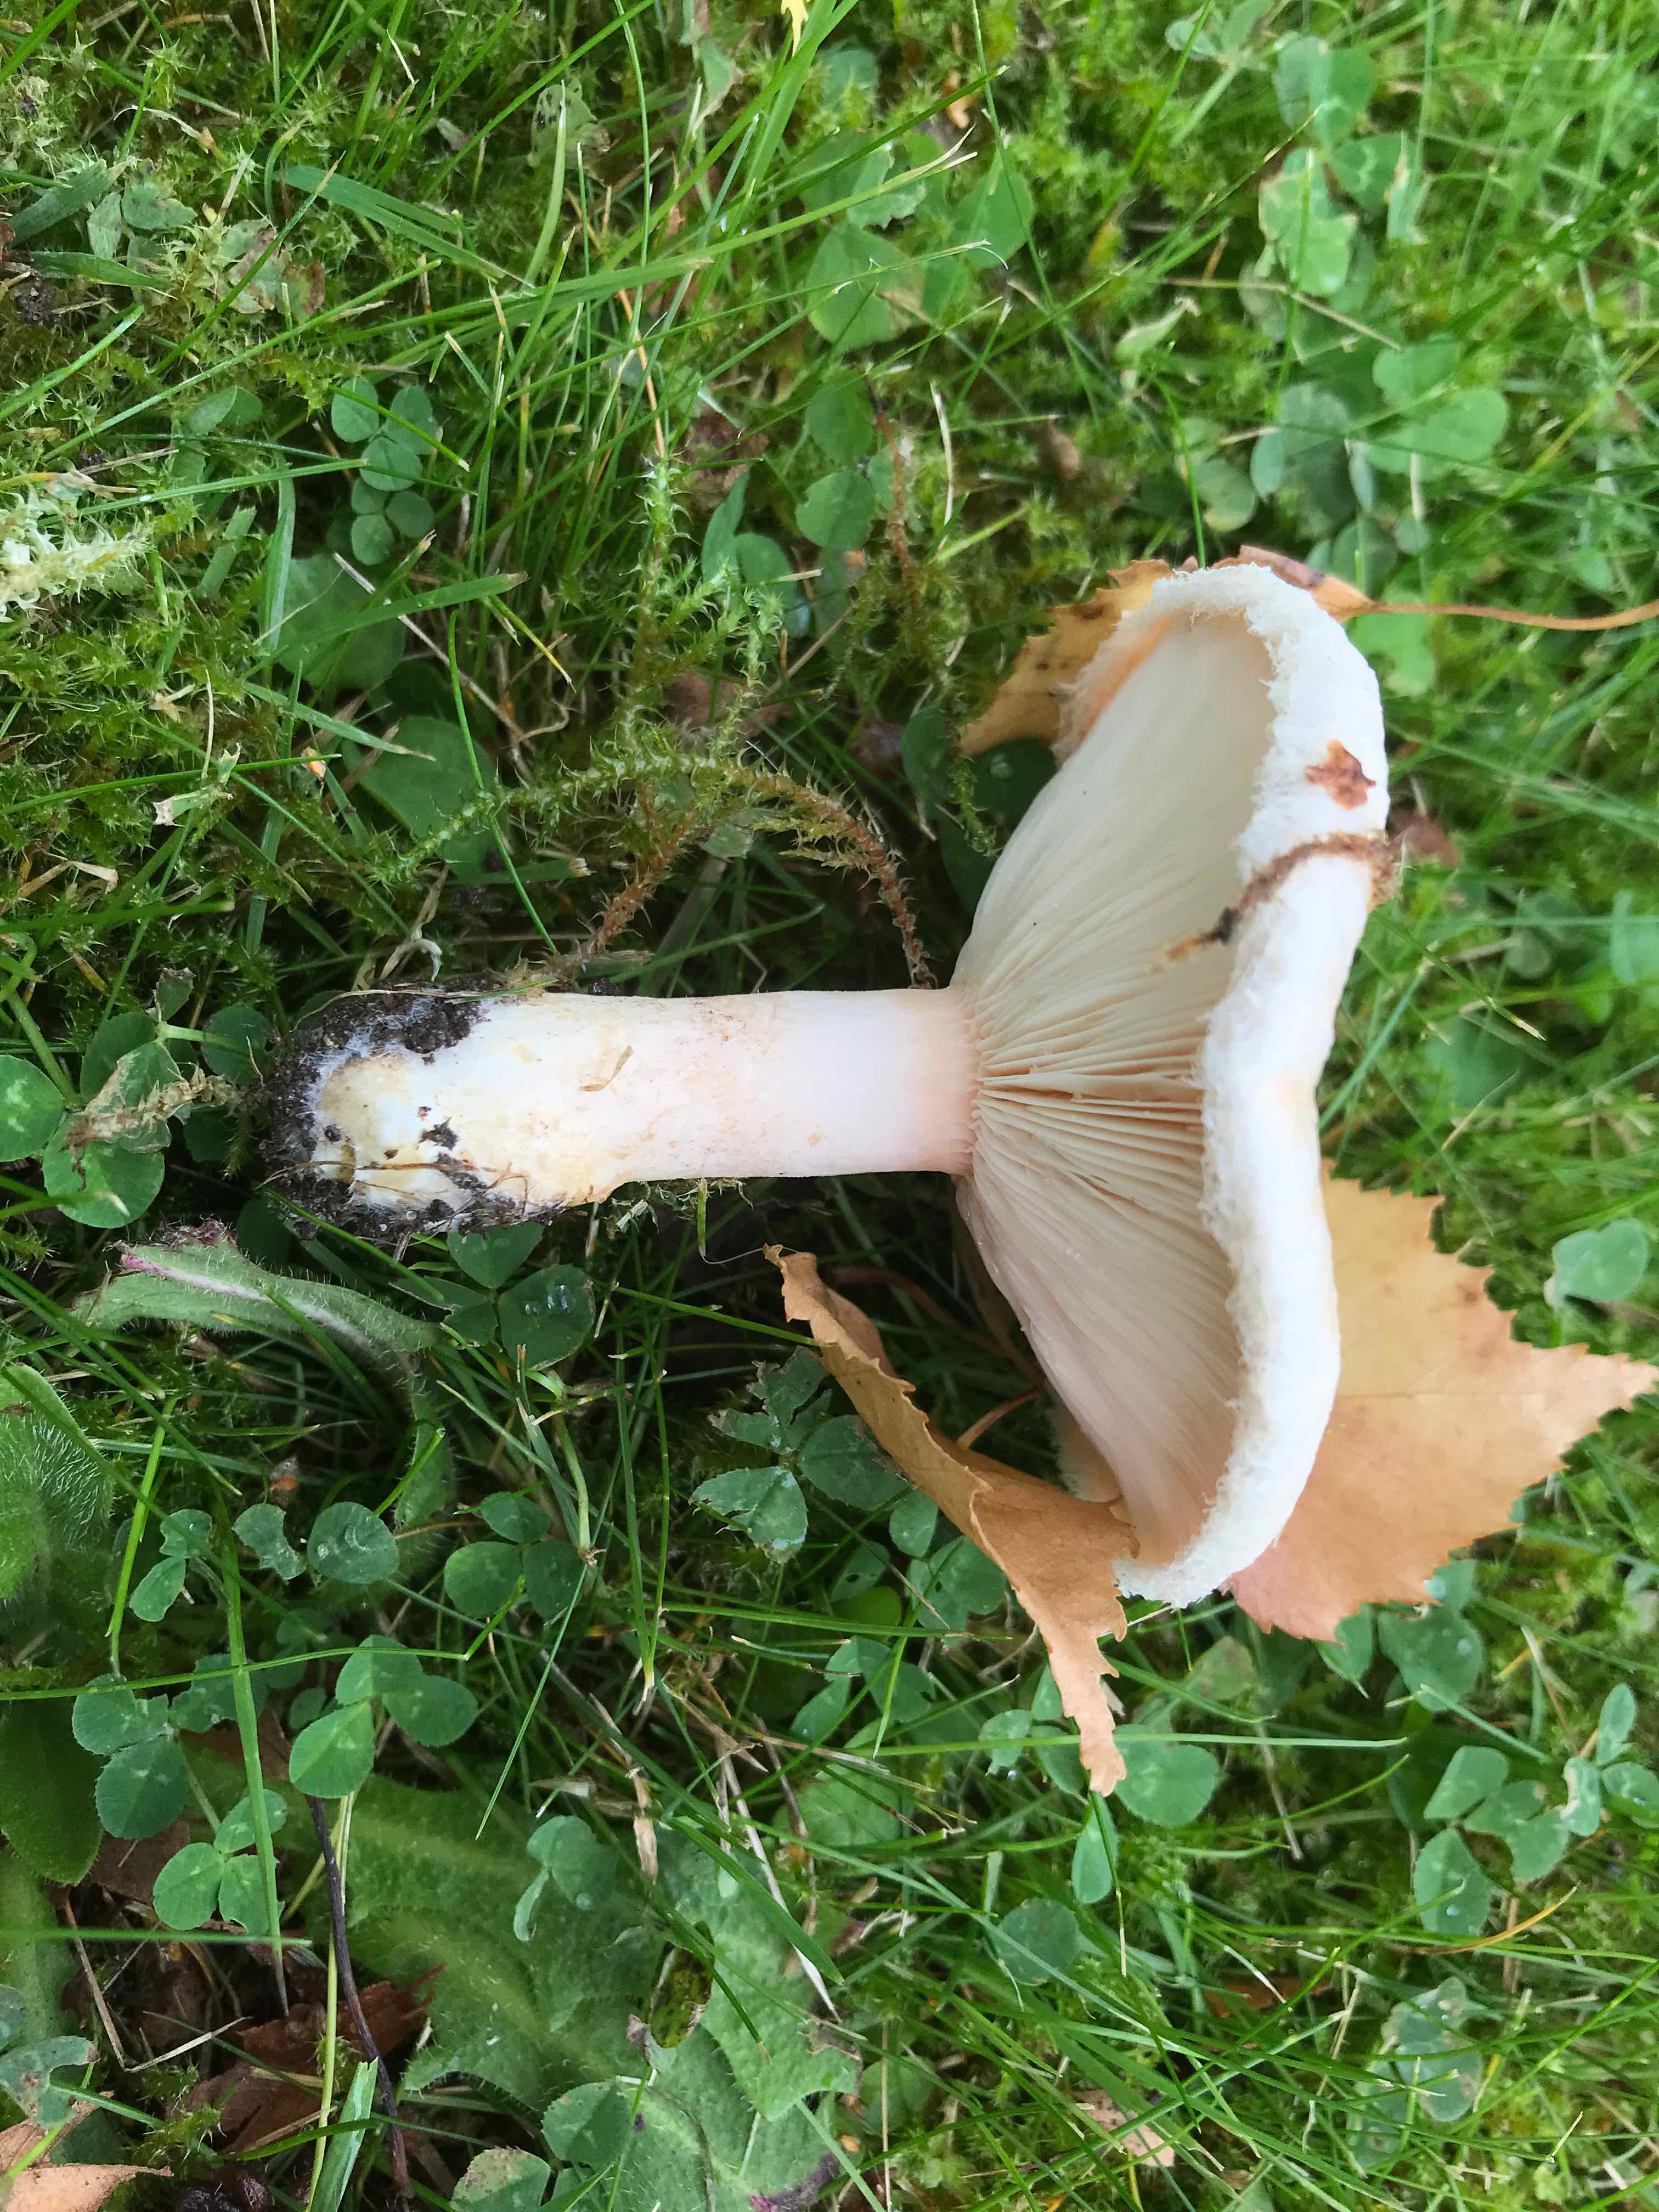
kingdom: Fungi
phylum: Basidiomycota
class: Agaricomycetes
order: Russulales
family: Russulaceae
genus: Lactarius
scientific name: Lactarius pubescens
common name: dunet mælkehat
